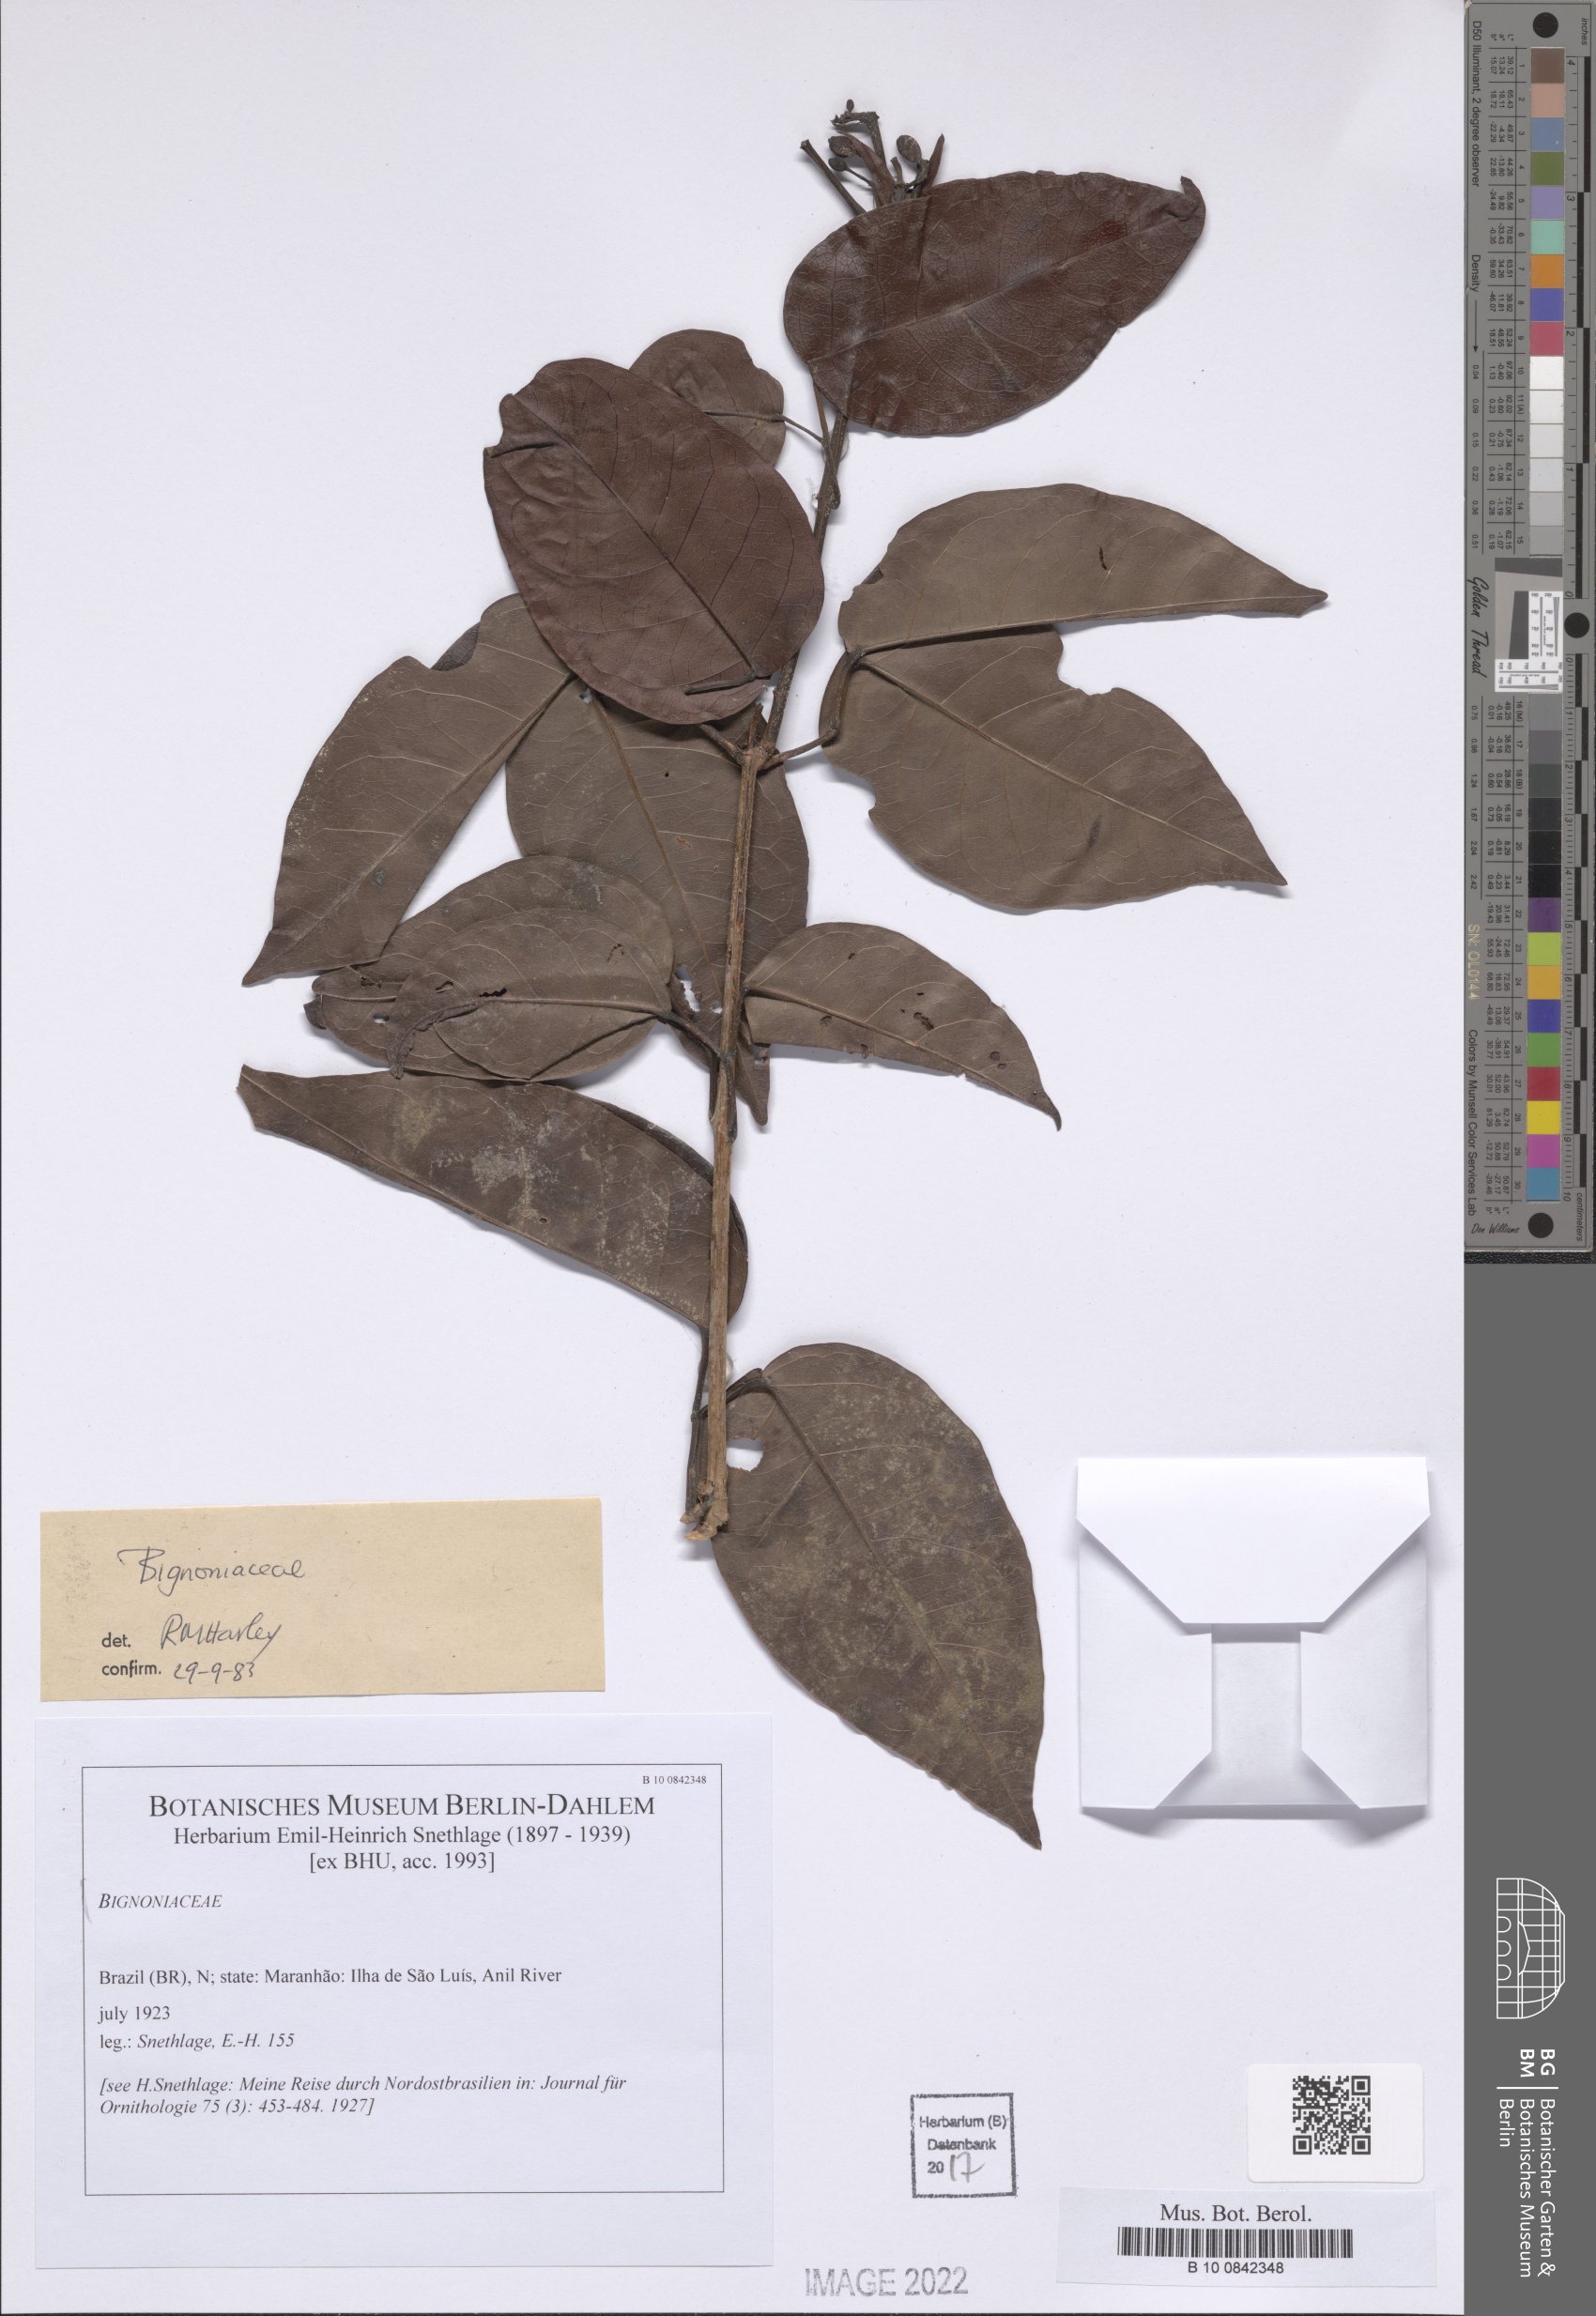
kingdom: Plantae
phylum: Tracheophyta
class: Magnoliopsida
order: Lamiales
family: Bignoniaceae
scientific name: Bignoniaceae
